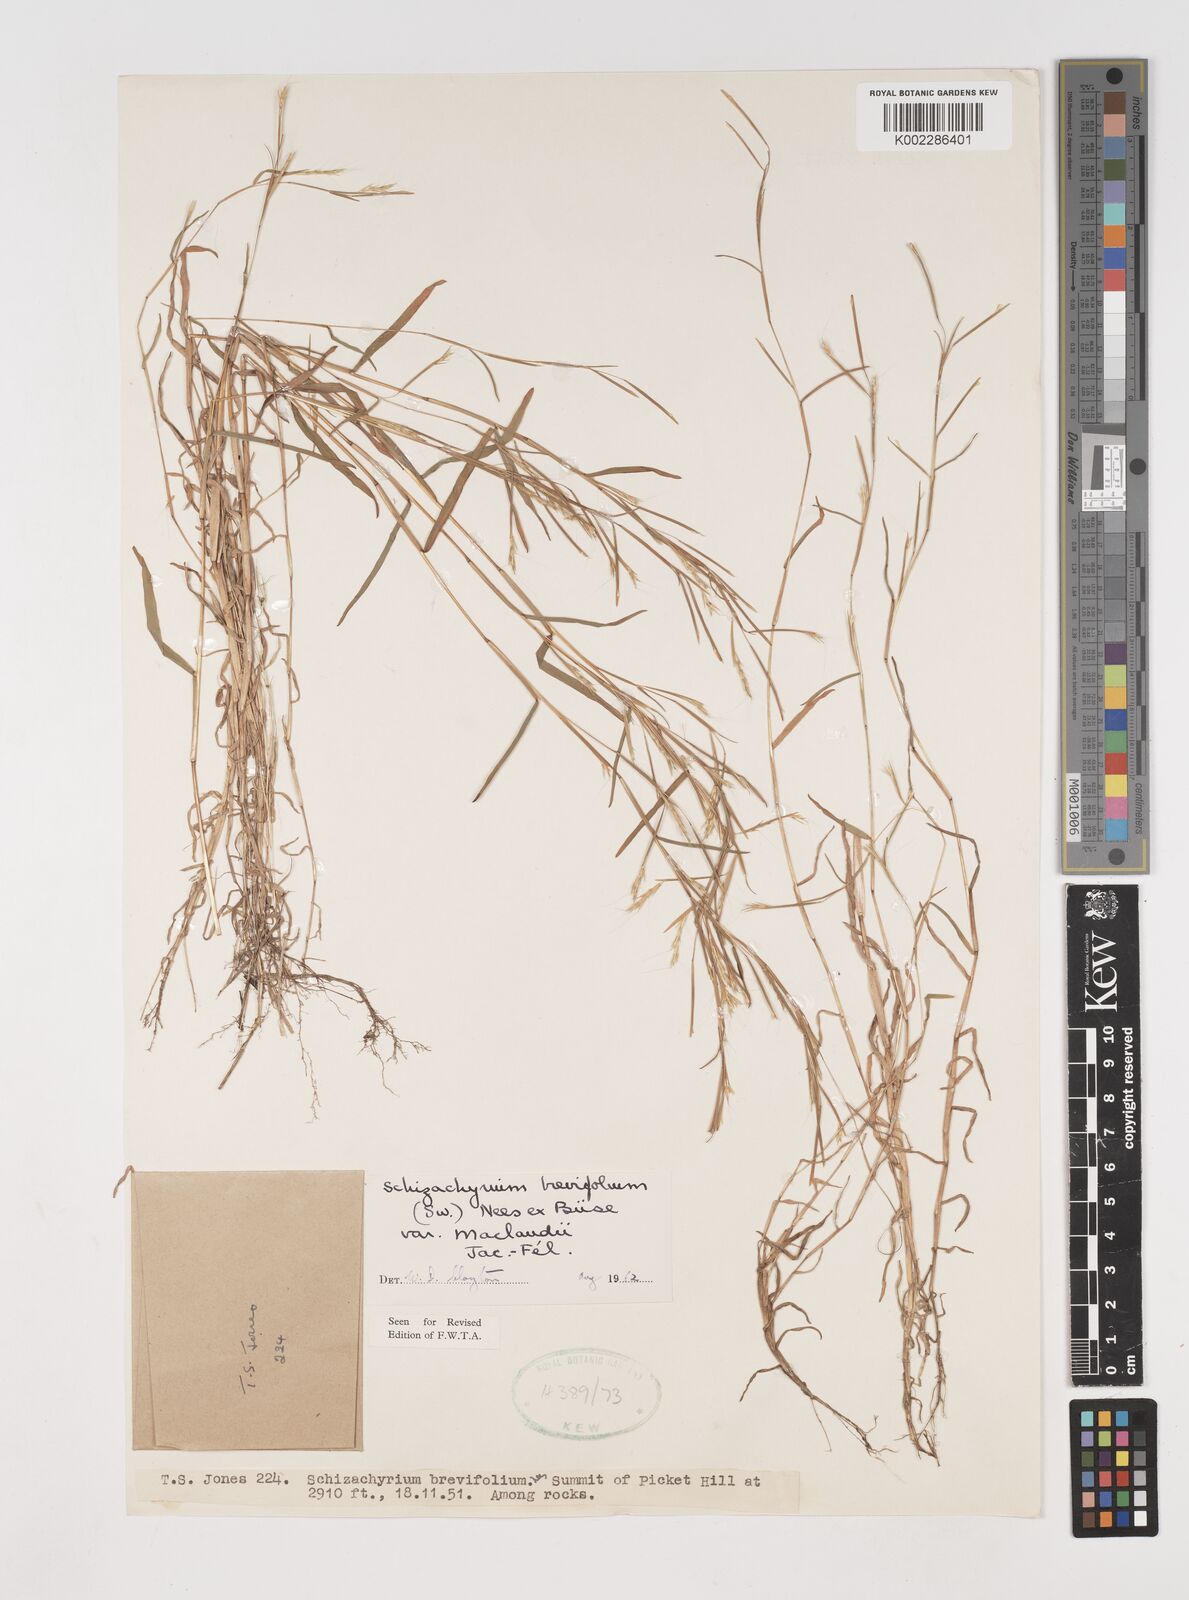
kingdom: Plantae
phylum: Tracheophyta
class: Liliopsida
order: Poales
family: Poaceae
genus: Schizachyrium
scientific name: Schizachyrium maclaudii
